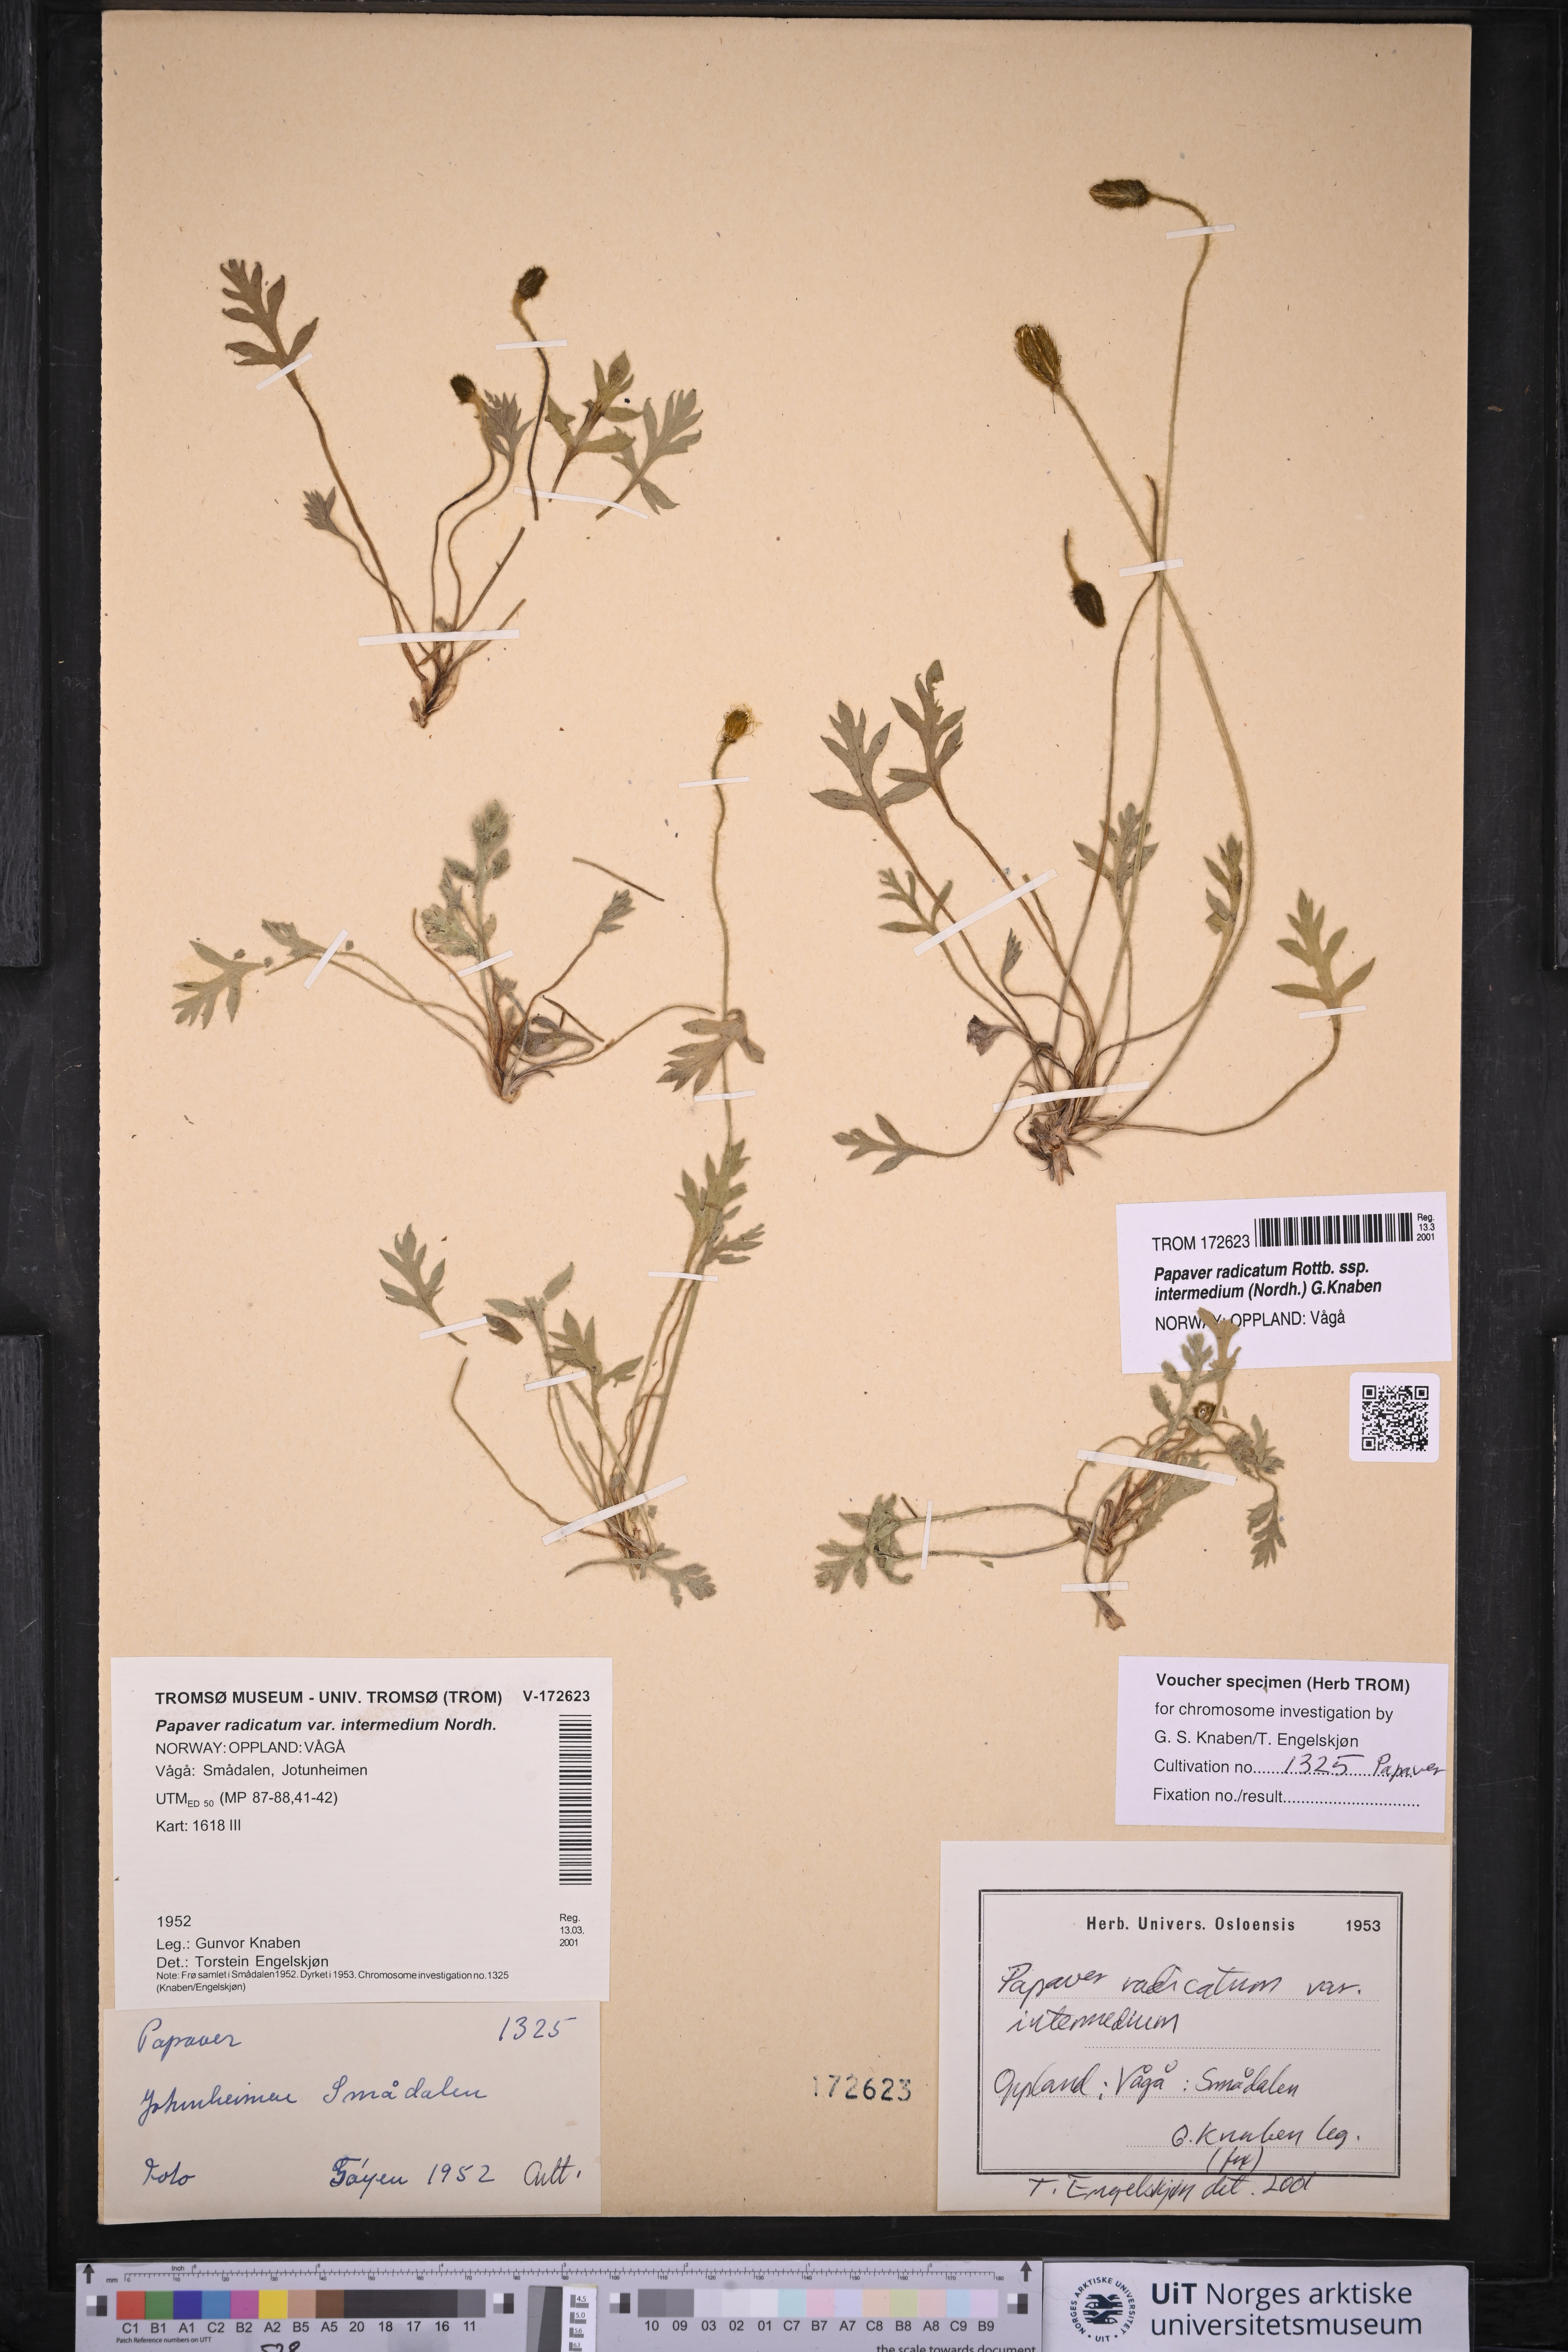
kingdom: Plantae
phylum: Tracheophyta
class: Magnoliopsida
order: Ranunculales
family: Papaveraceae
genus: Papaver
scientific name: Papaver radicatum
